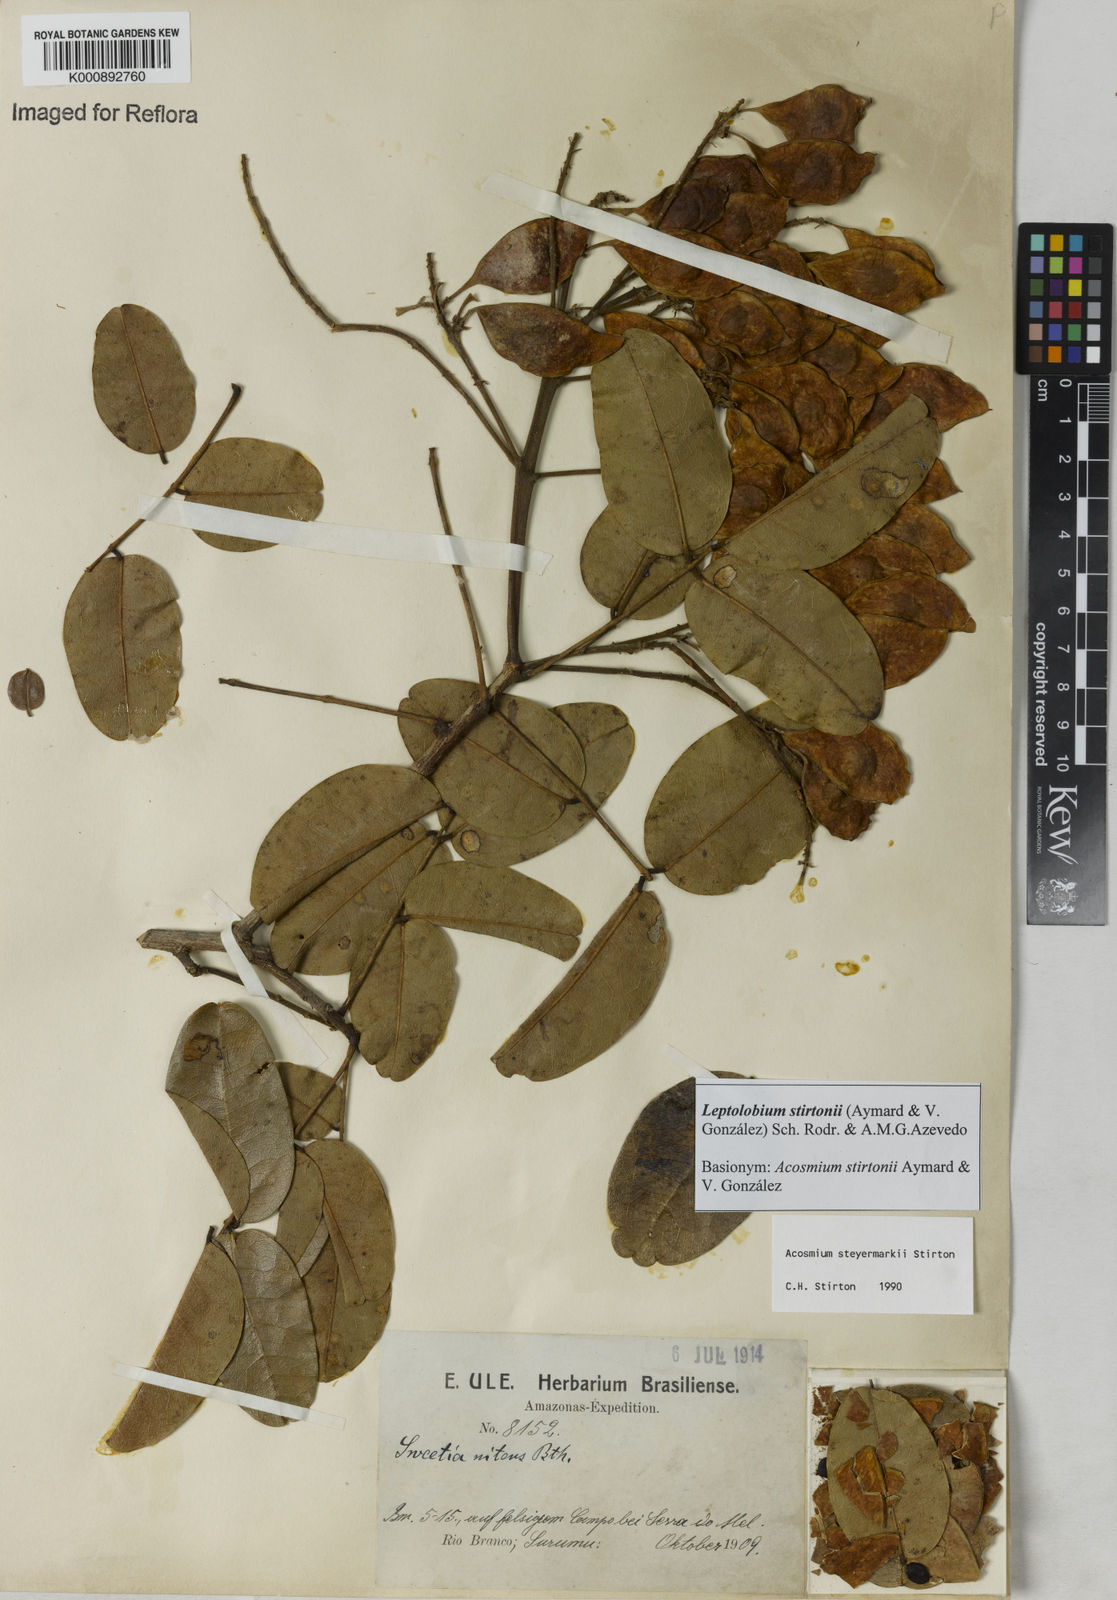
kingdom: Plantae
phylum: Tracheophyta
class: Magnoliopsida
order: Fabales
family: Fabaceae
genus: Leptolobium
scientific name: Leptolobium
